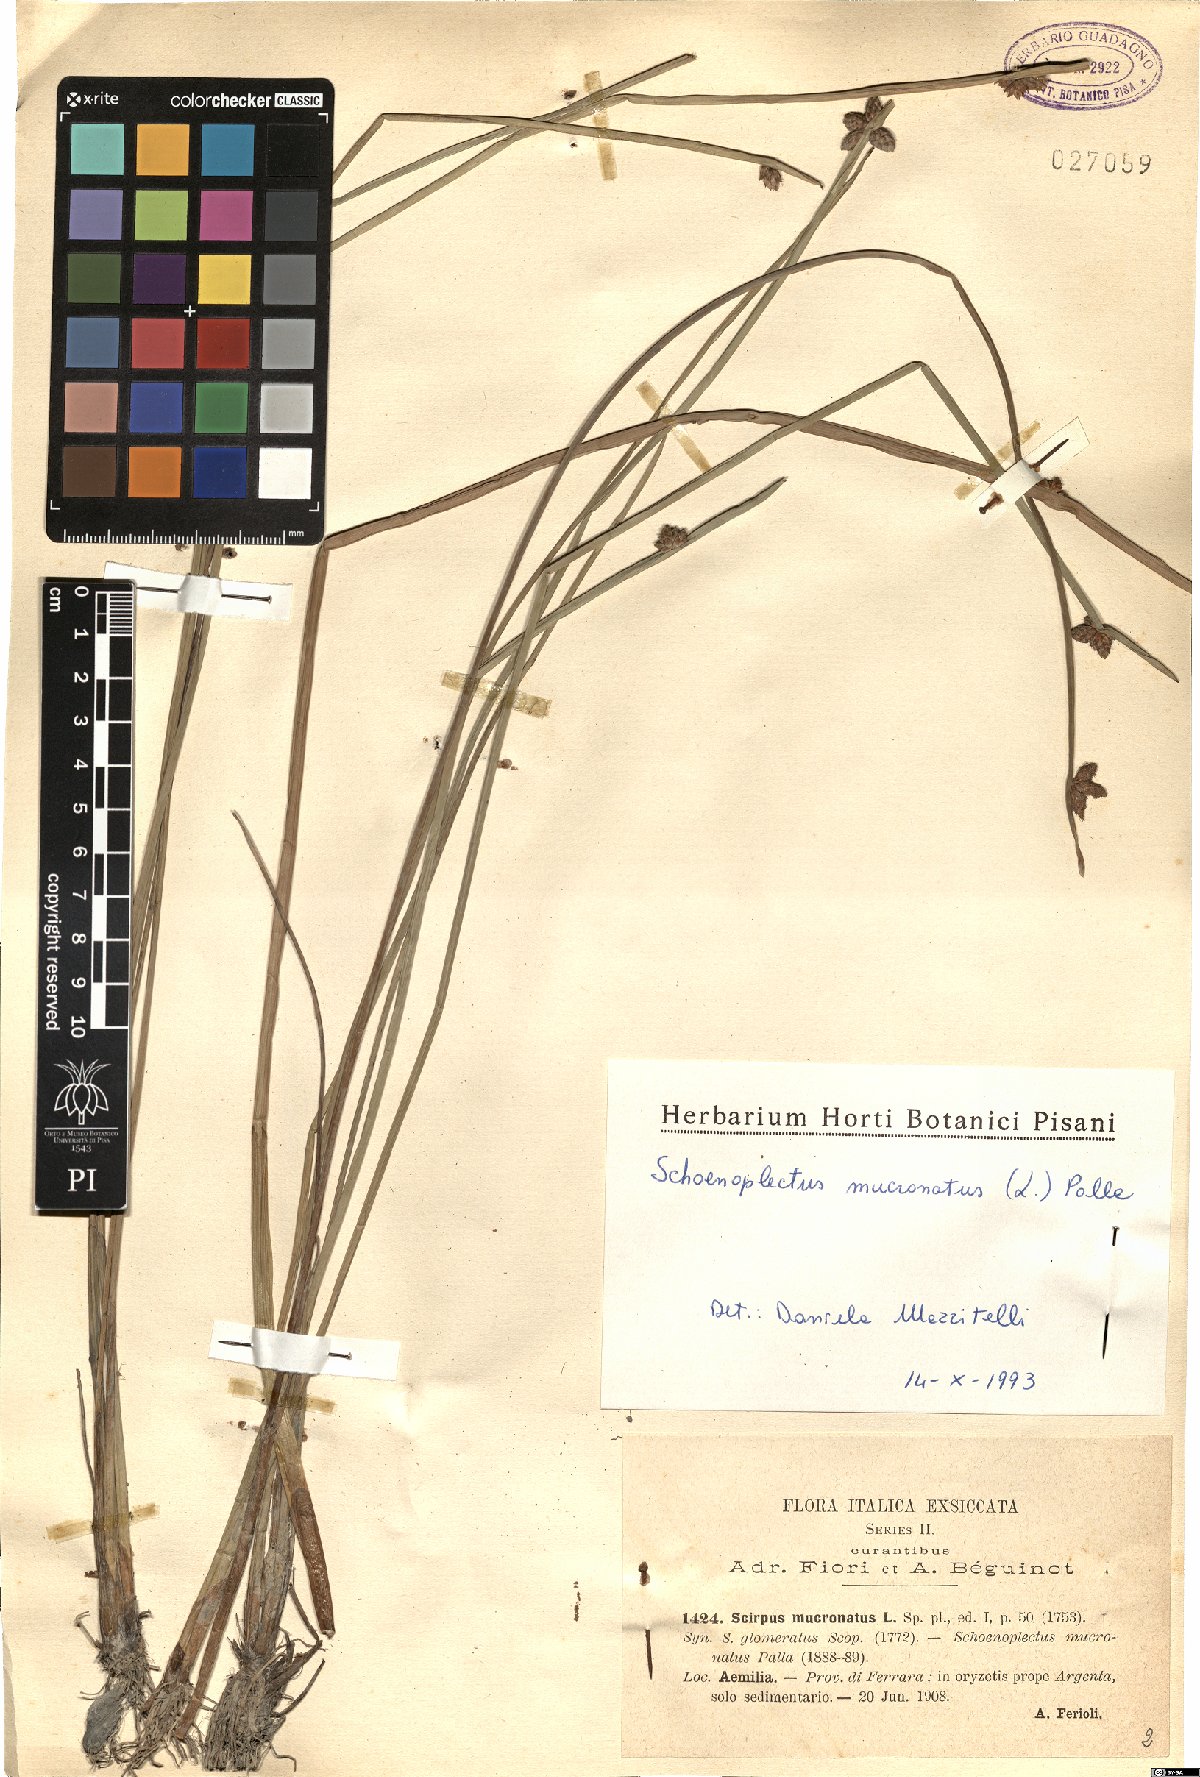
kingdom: Plantae
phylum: Tracheophyta
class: Liliopsida
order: Poales
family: Cyperaceae
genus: Schoenoplectiella
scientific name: Schoenoplectiella mucronata
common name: Bog bulrush
